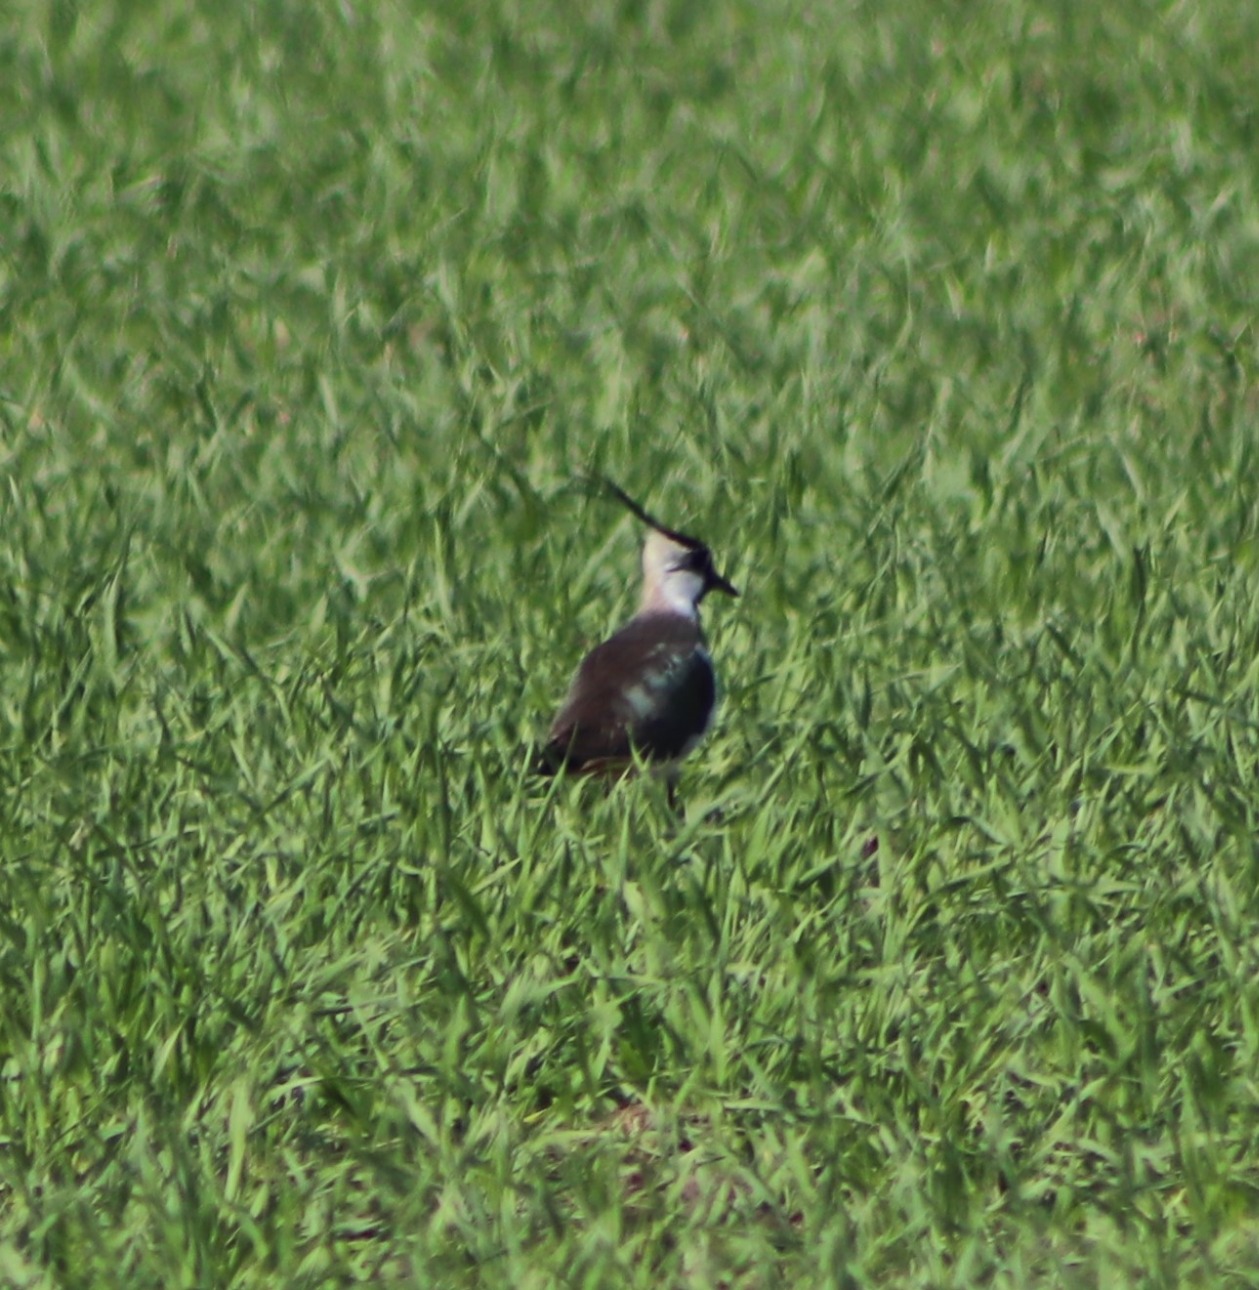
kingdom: Animalia
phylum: Chordata
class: Aves
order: Charadriiformes
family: Charadriidae
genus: Vanellus
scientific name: Vanellus vanellus
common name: Vibe
